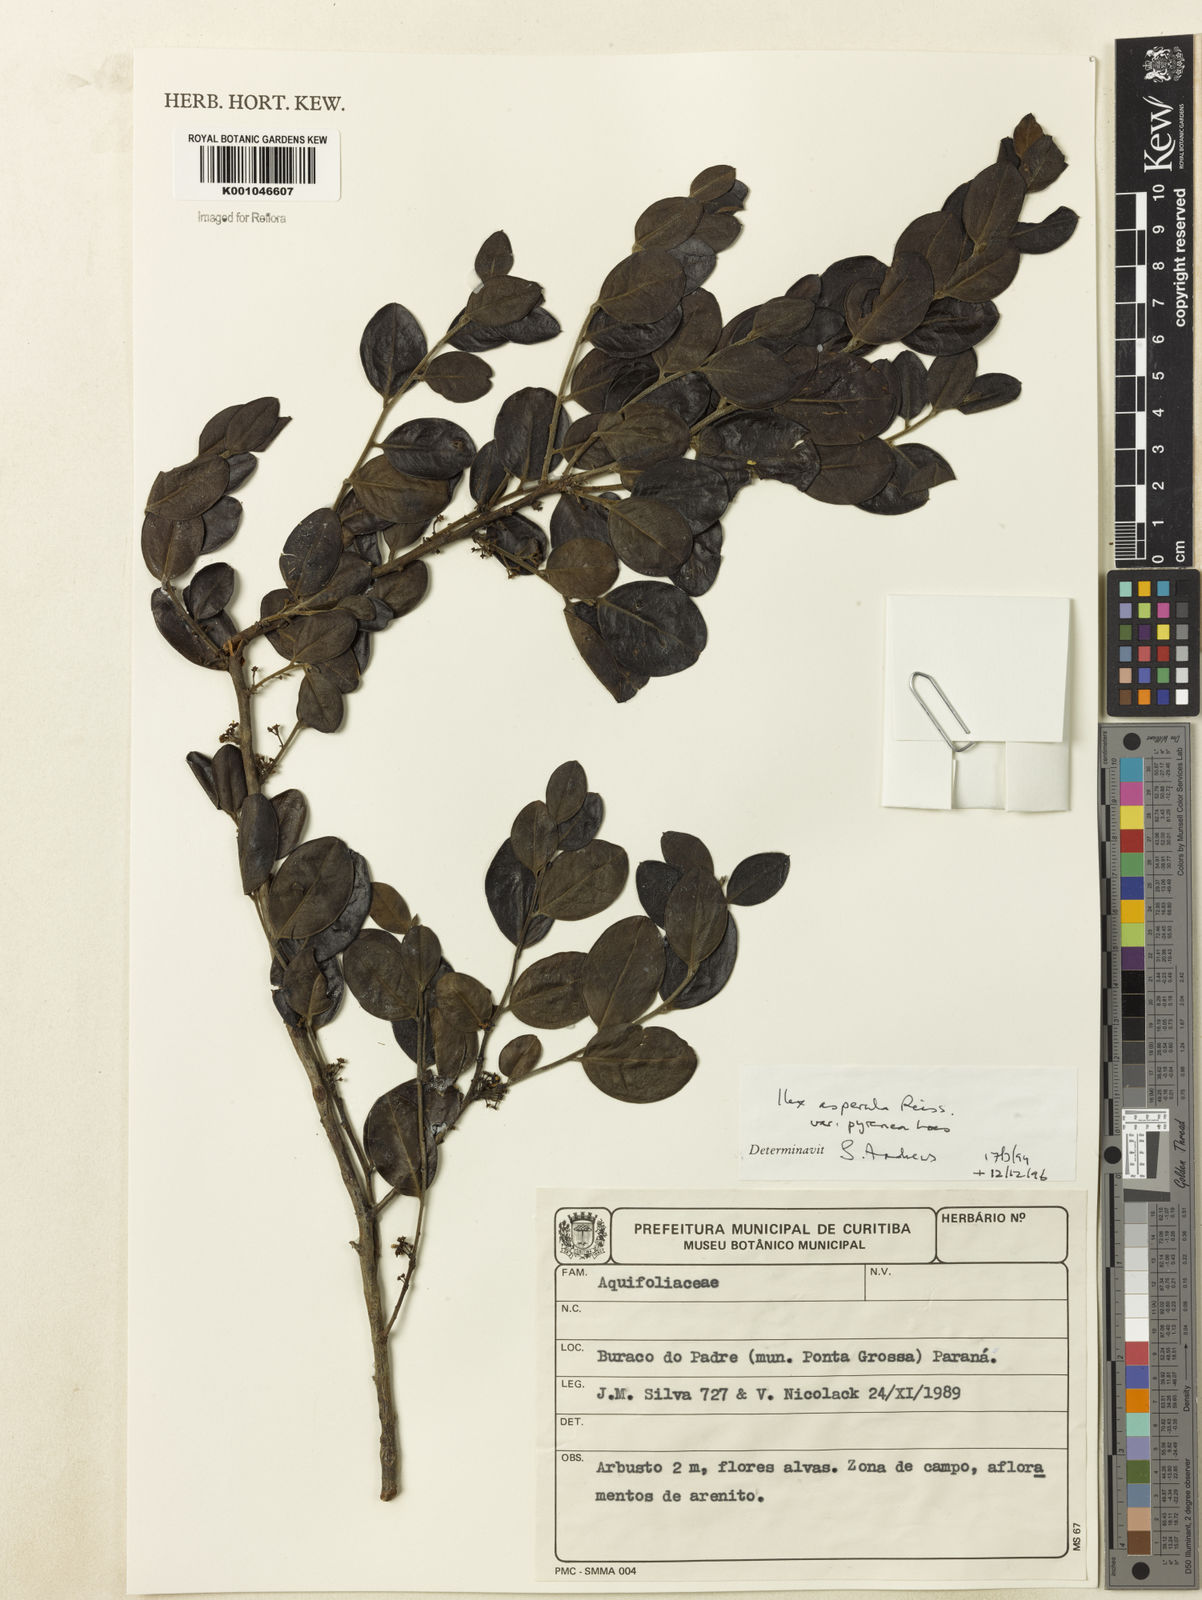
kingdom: Plantae
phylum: Tracheophyta
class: Magnoliopsida
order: Aquifoliales
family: Aquifoliaceae
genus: Ilex
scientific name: Ilex asperula
